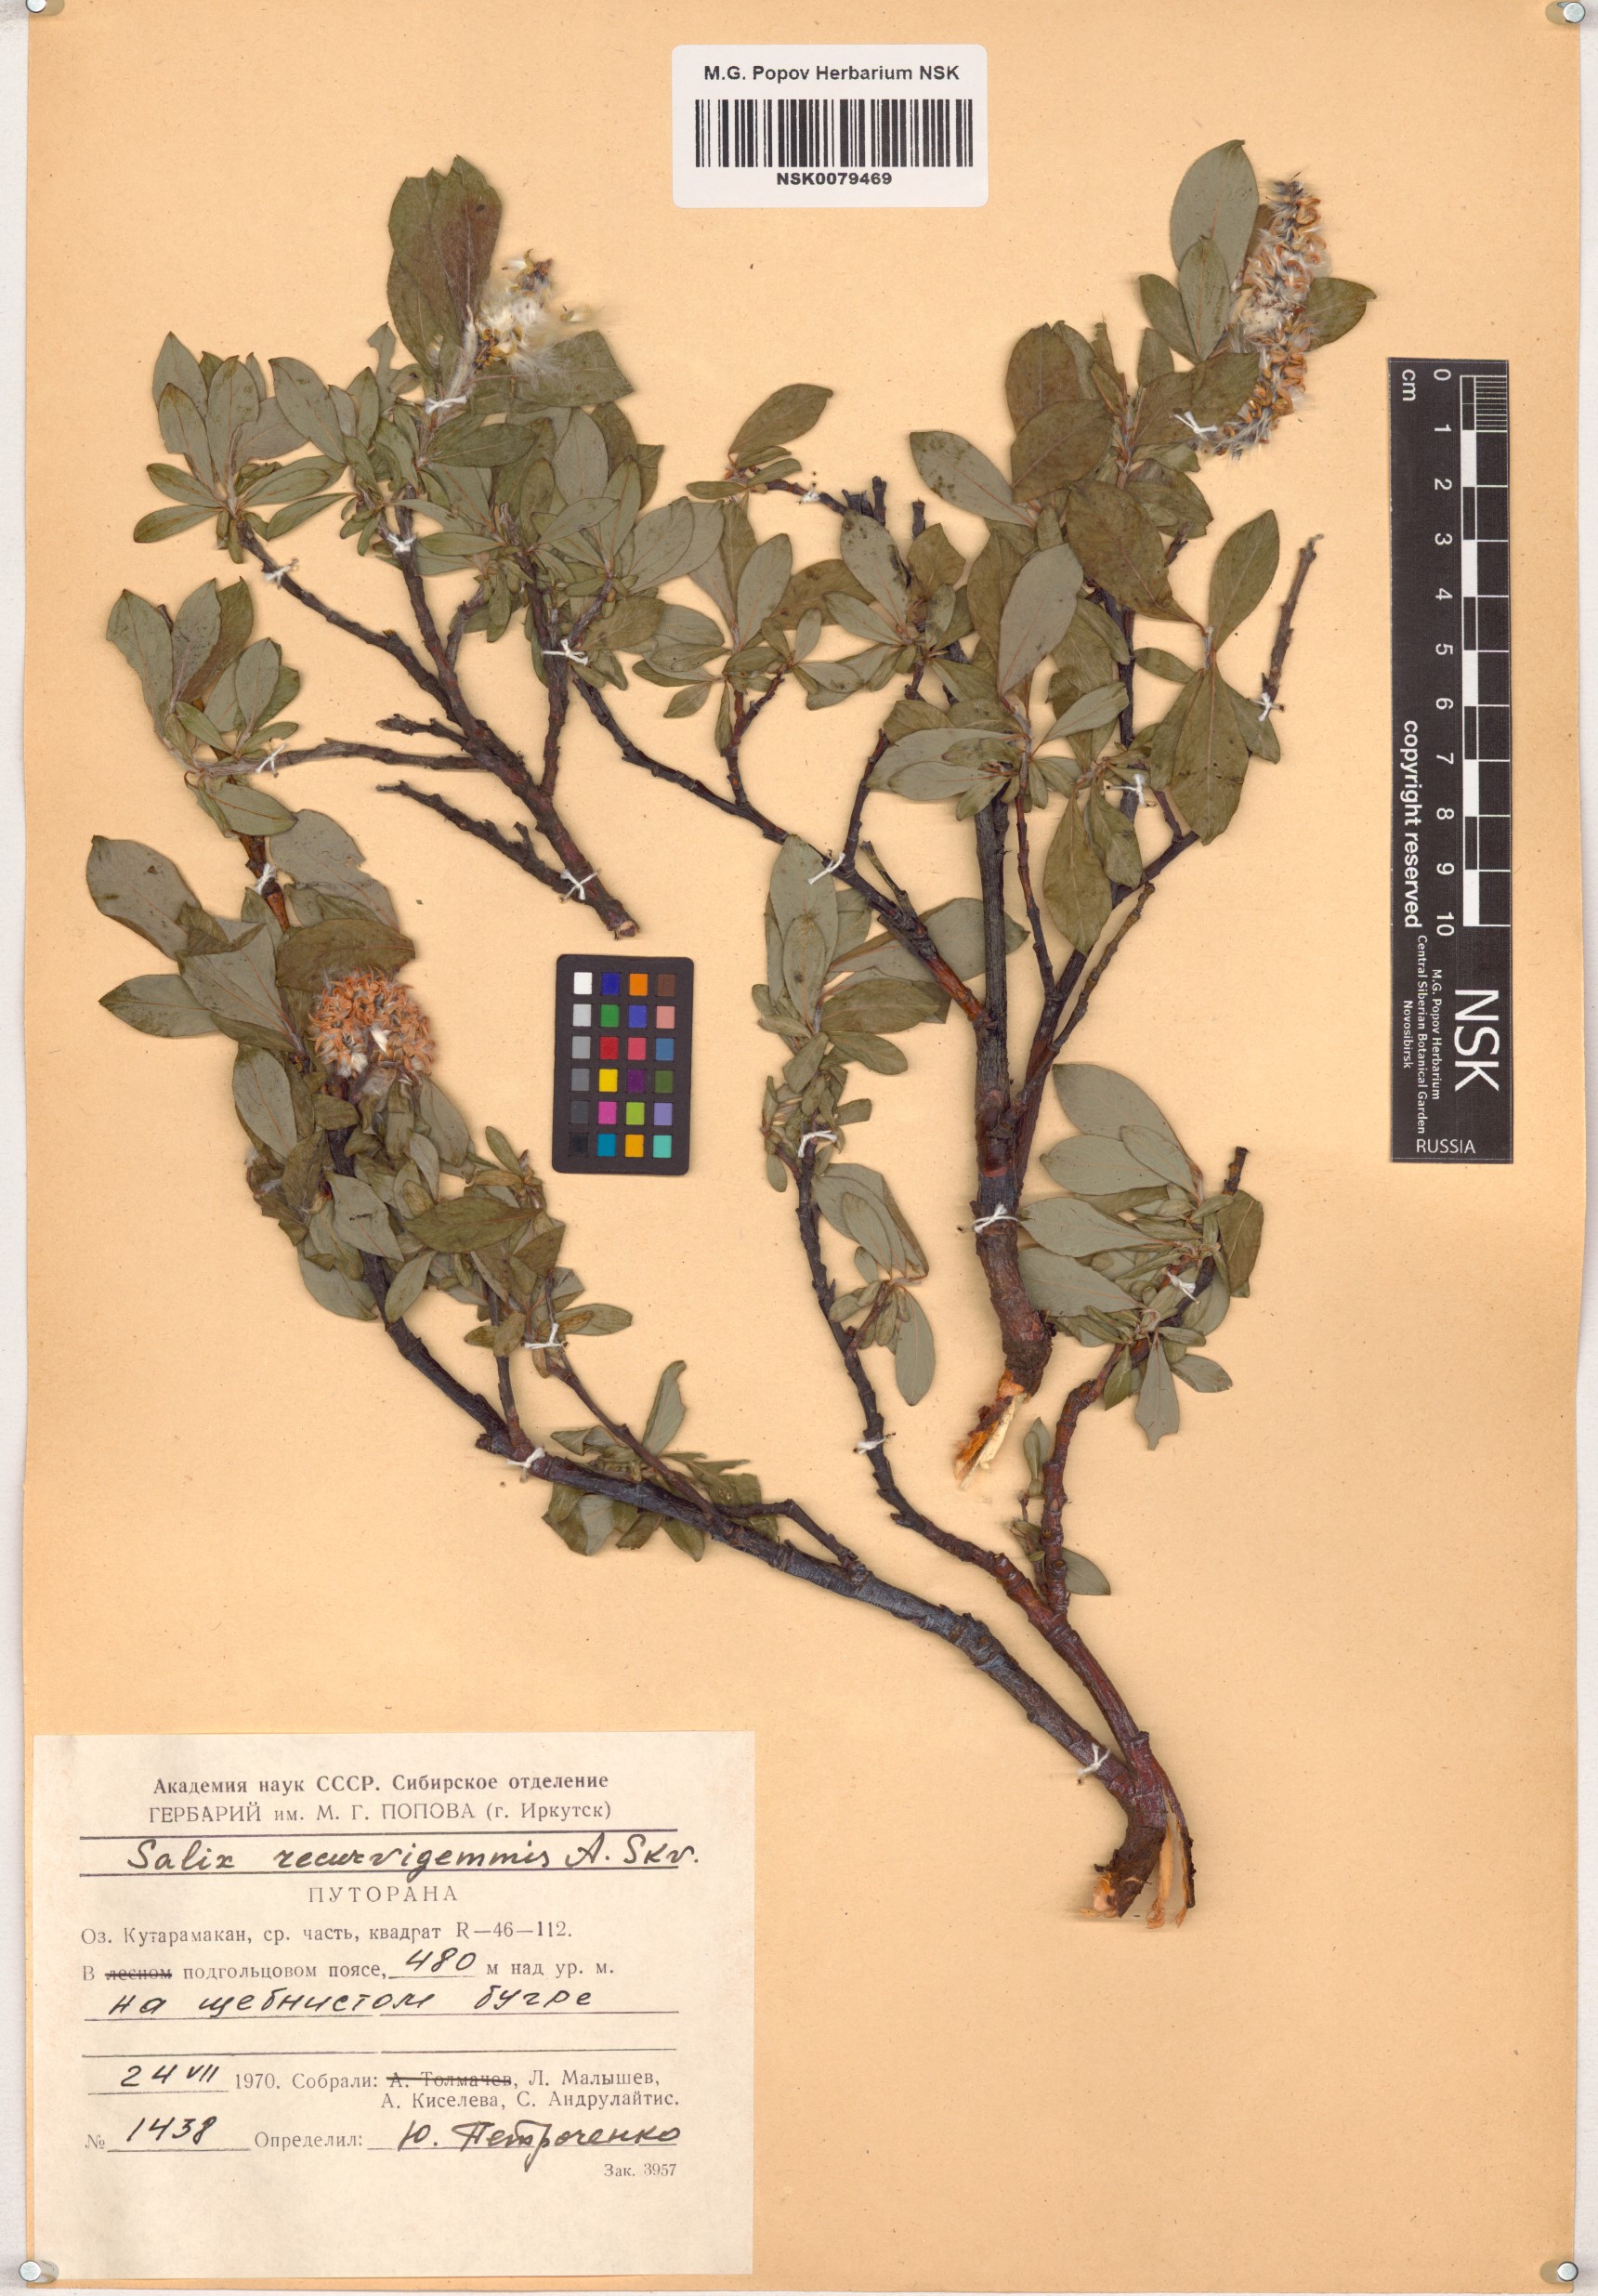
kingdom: Plantae
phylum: Tracheophyta
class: Magnoliopsida
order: Malpighiales
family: Salicaceae
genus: Salix
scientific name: Salix recurvigemmata
